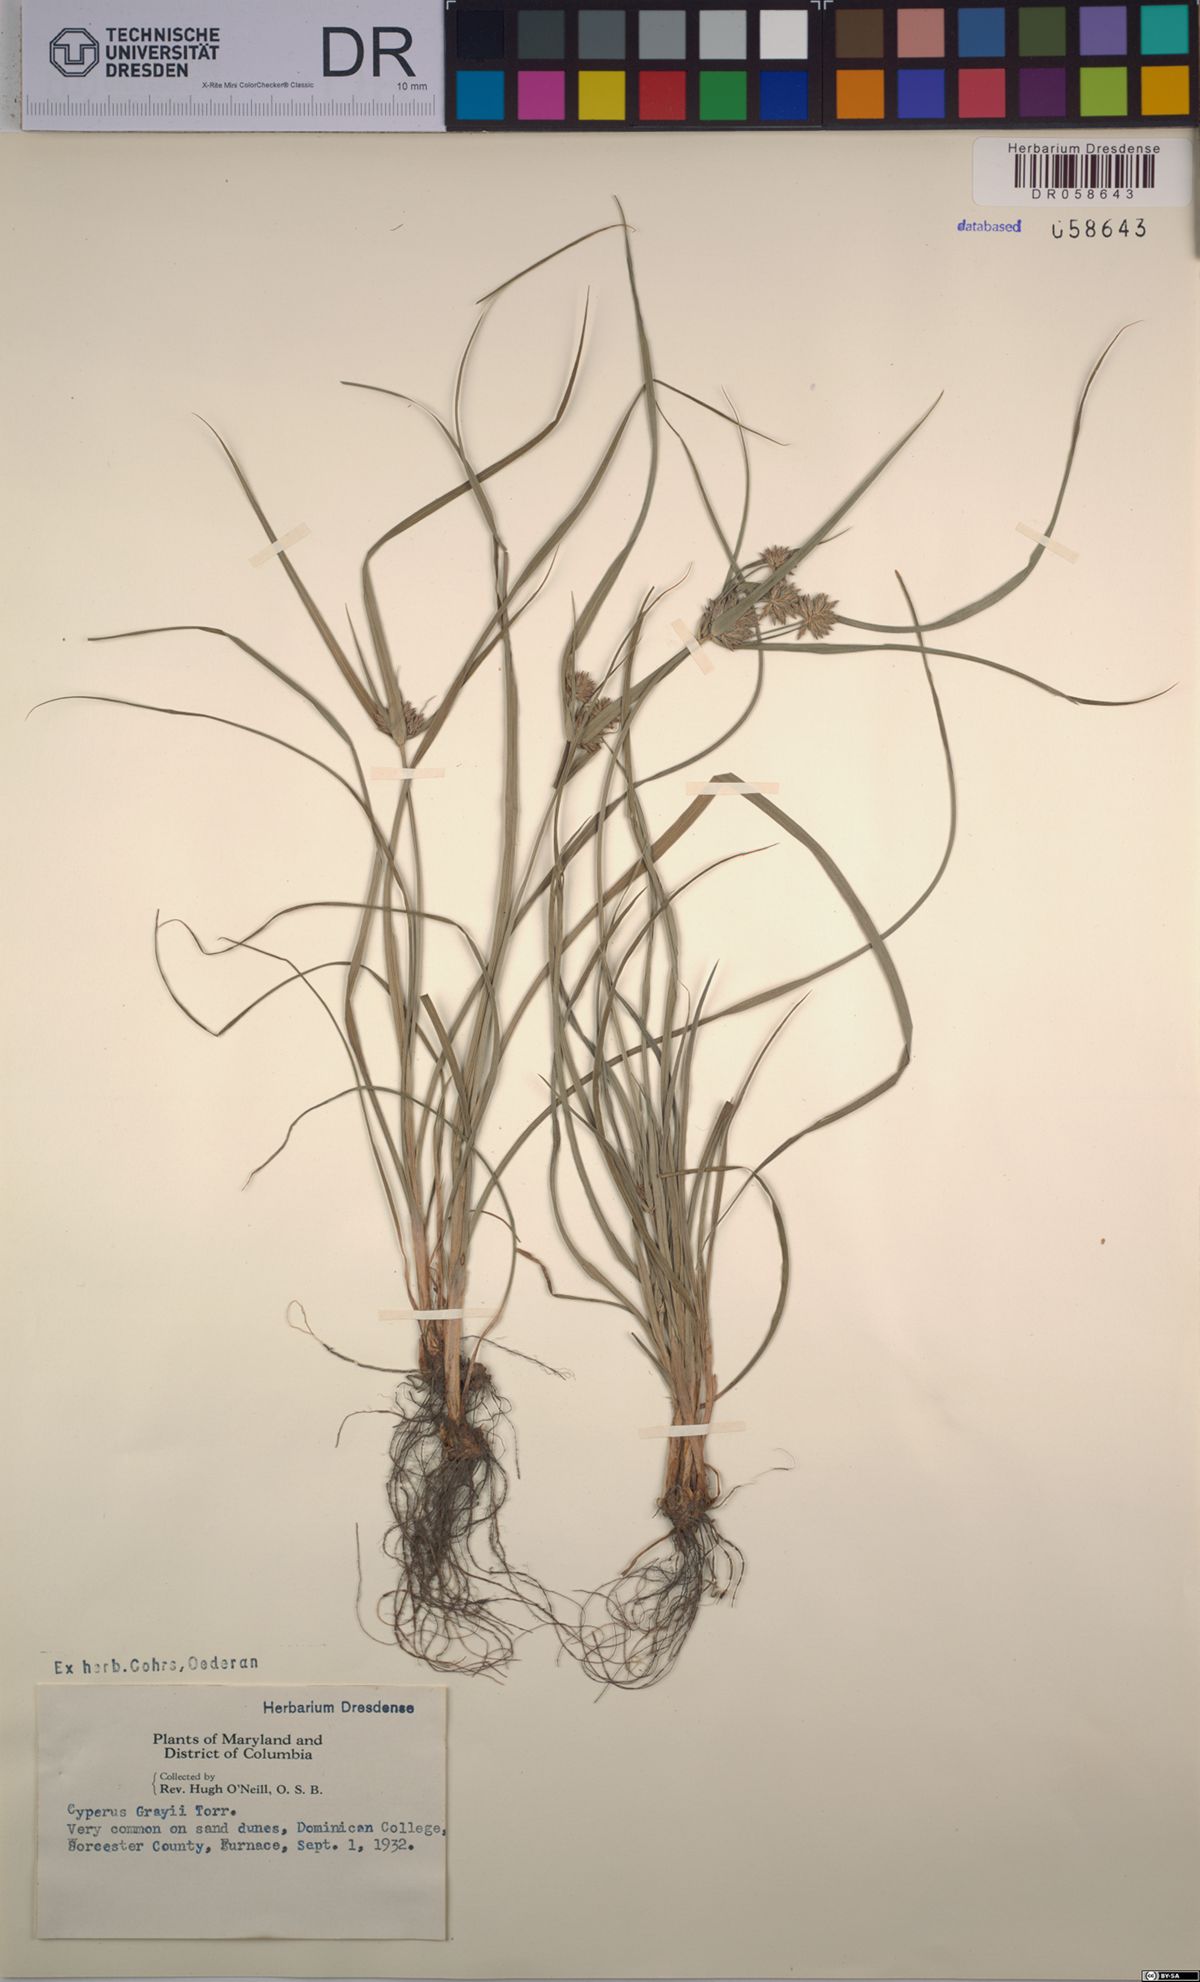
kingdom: Plantae
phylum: Tracheophyta
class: Liliopsida
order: Poales
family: Cyperaceae
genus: Cyperus
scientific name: Cyperus grayi
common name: Gray's flat sedge
